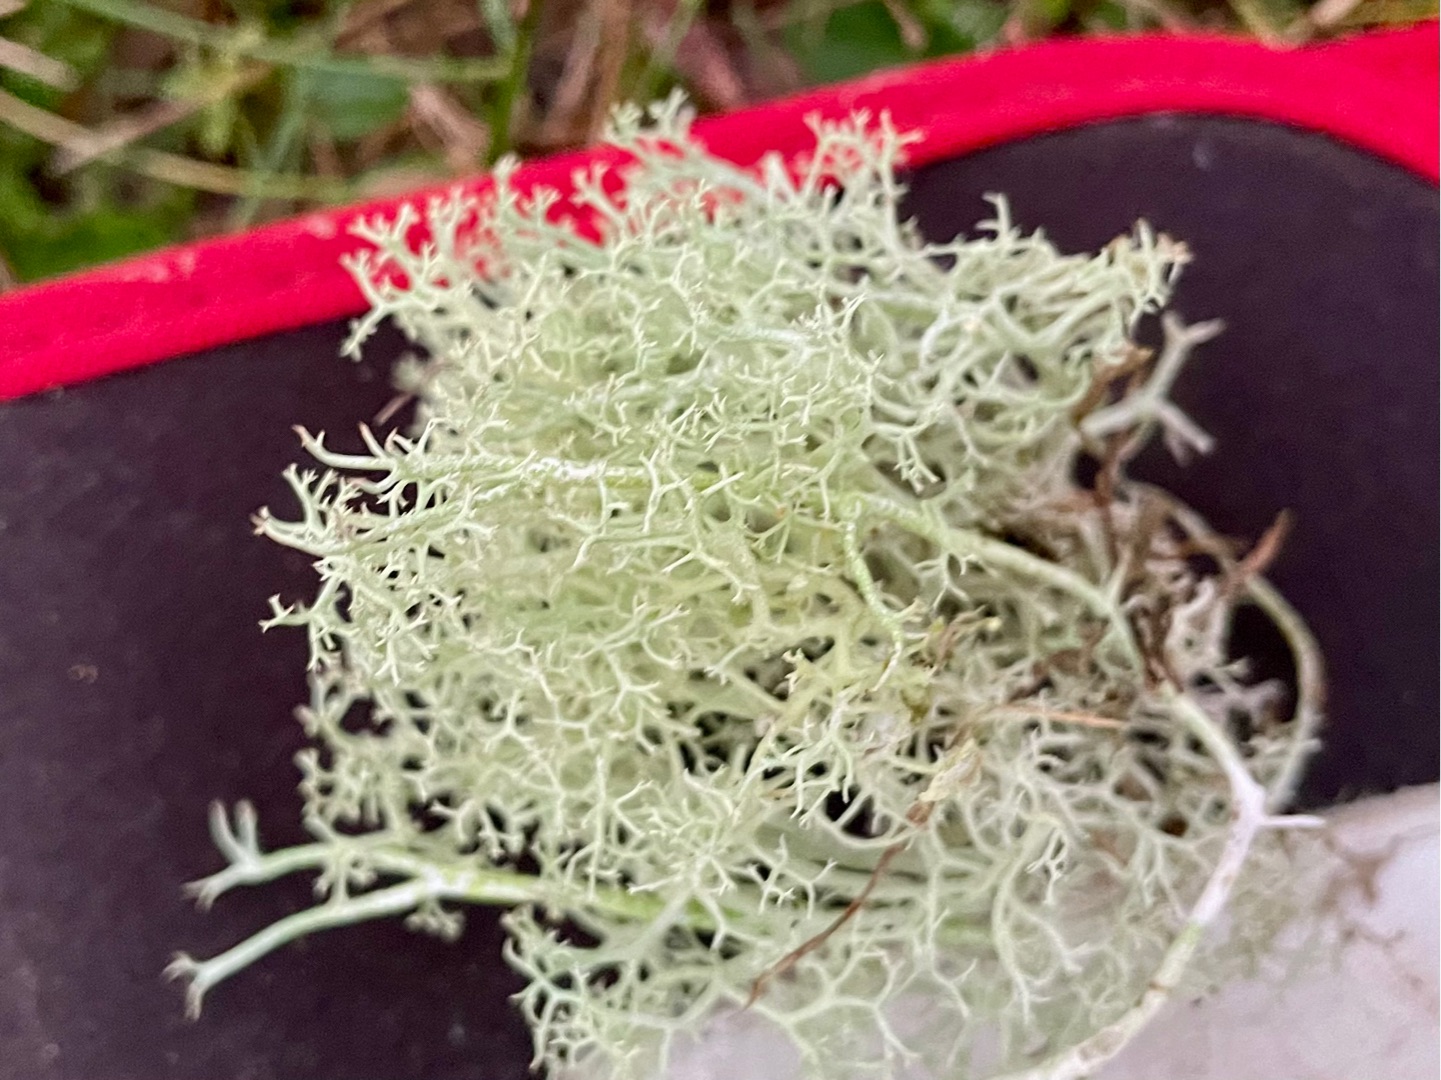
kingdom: Fungi
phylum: Ascomycota
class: Lecanoromycetes
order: Lecanorales
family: Cladoniaceae
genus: Cladonia
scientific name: Cladonia portentosa
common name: Hede-rensdyrlav
